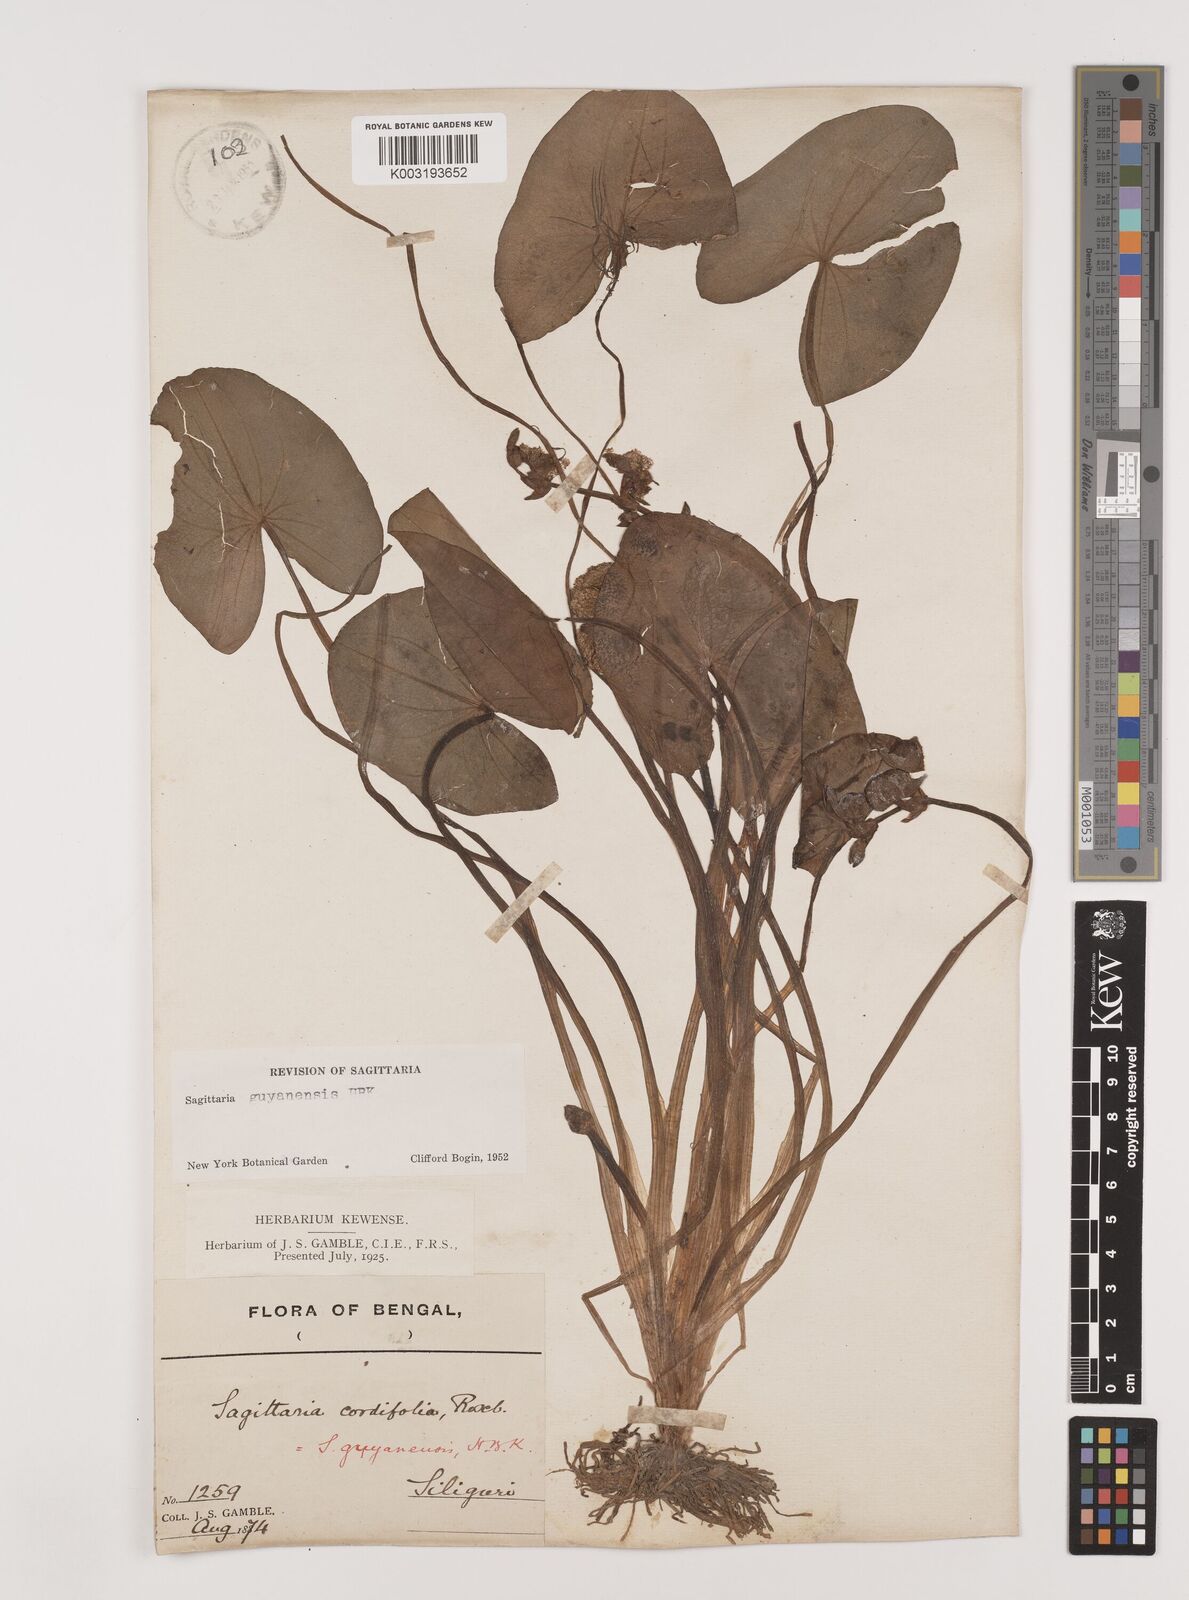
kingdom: Plantae
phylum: Tracheophyta
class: Liliopsida
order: Alismatales
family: Alismataceae
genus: Sagittaria
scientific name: Sagittaria guayanensis
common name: Guyanese arrowhead
